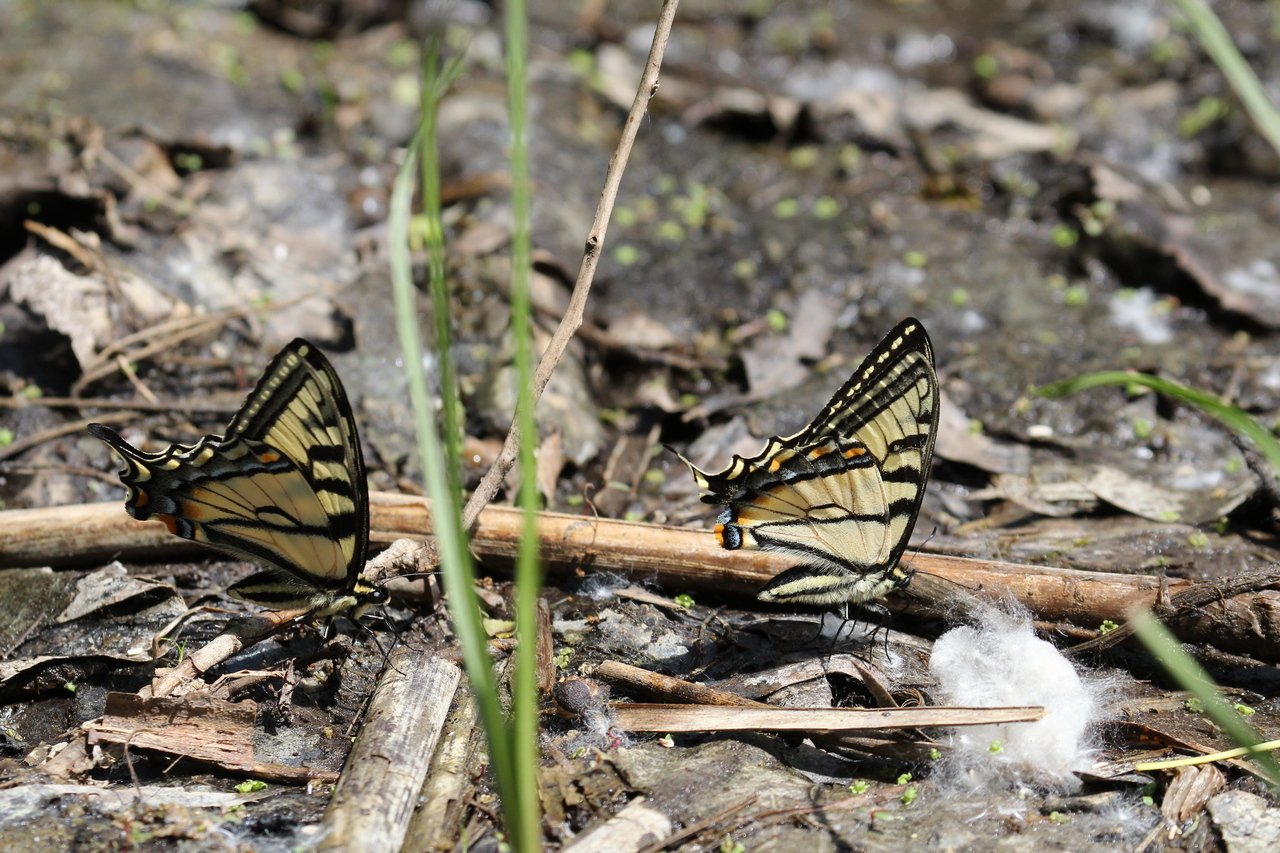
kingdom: Animalia
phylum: Arthropoda
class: Insecta
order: Lepidoptera
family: Papilionidae
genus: Pterourus
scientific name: Pterourus canadensis
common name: Canadian Tiger Swallowtail
